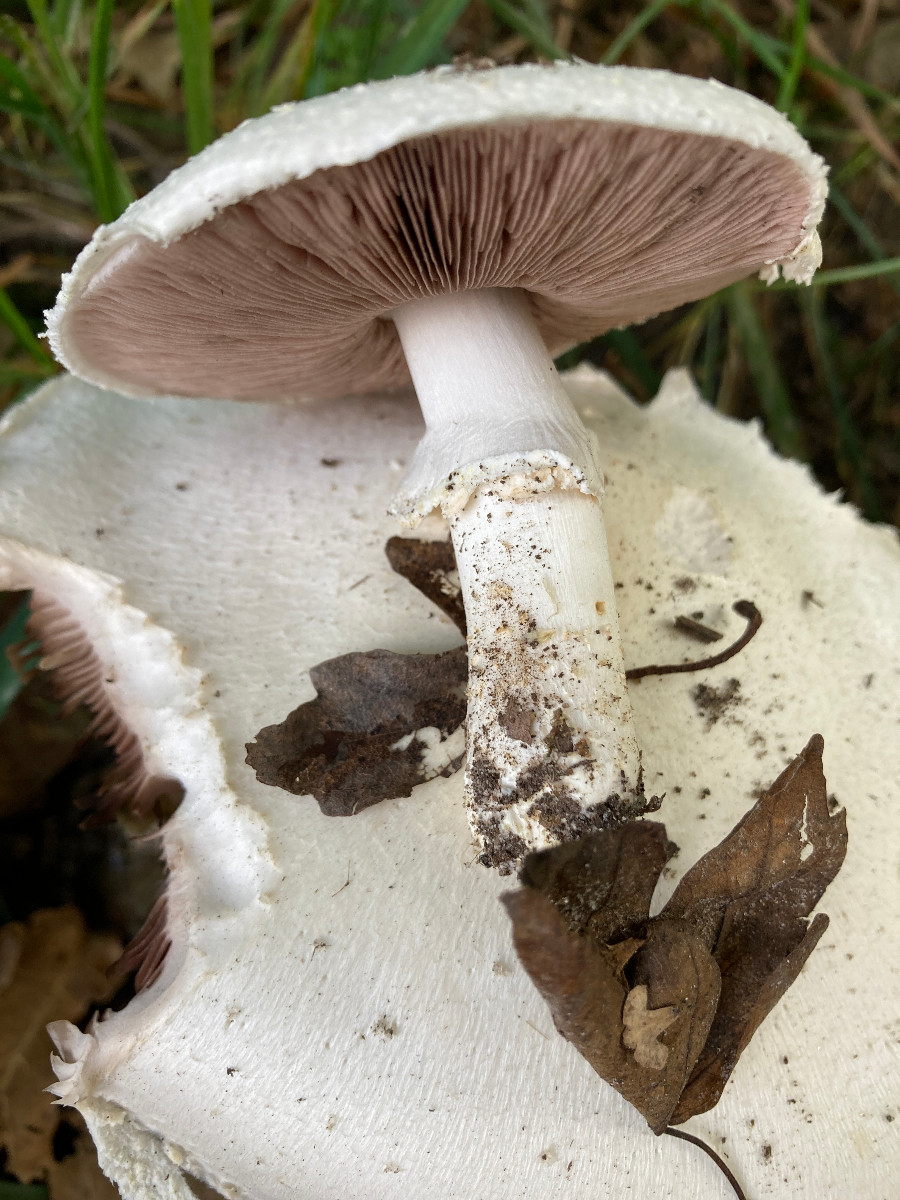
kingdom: Fungi
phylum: Basidiomycota
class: Agaricomycetes
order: Agaricales
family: Agaricaceae
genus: Agaricus
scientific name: Agaricus
